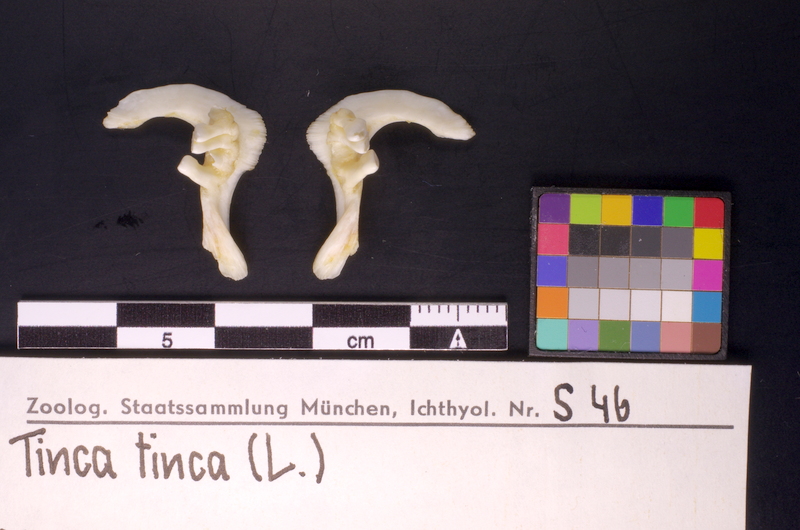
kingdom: Animalia
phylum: Chordata
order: Cypriniformes
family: Cyprinidae
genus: Tinca
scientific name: Tinca tinca
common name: Tench
